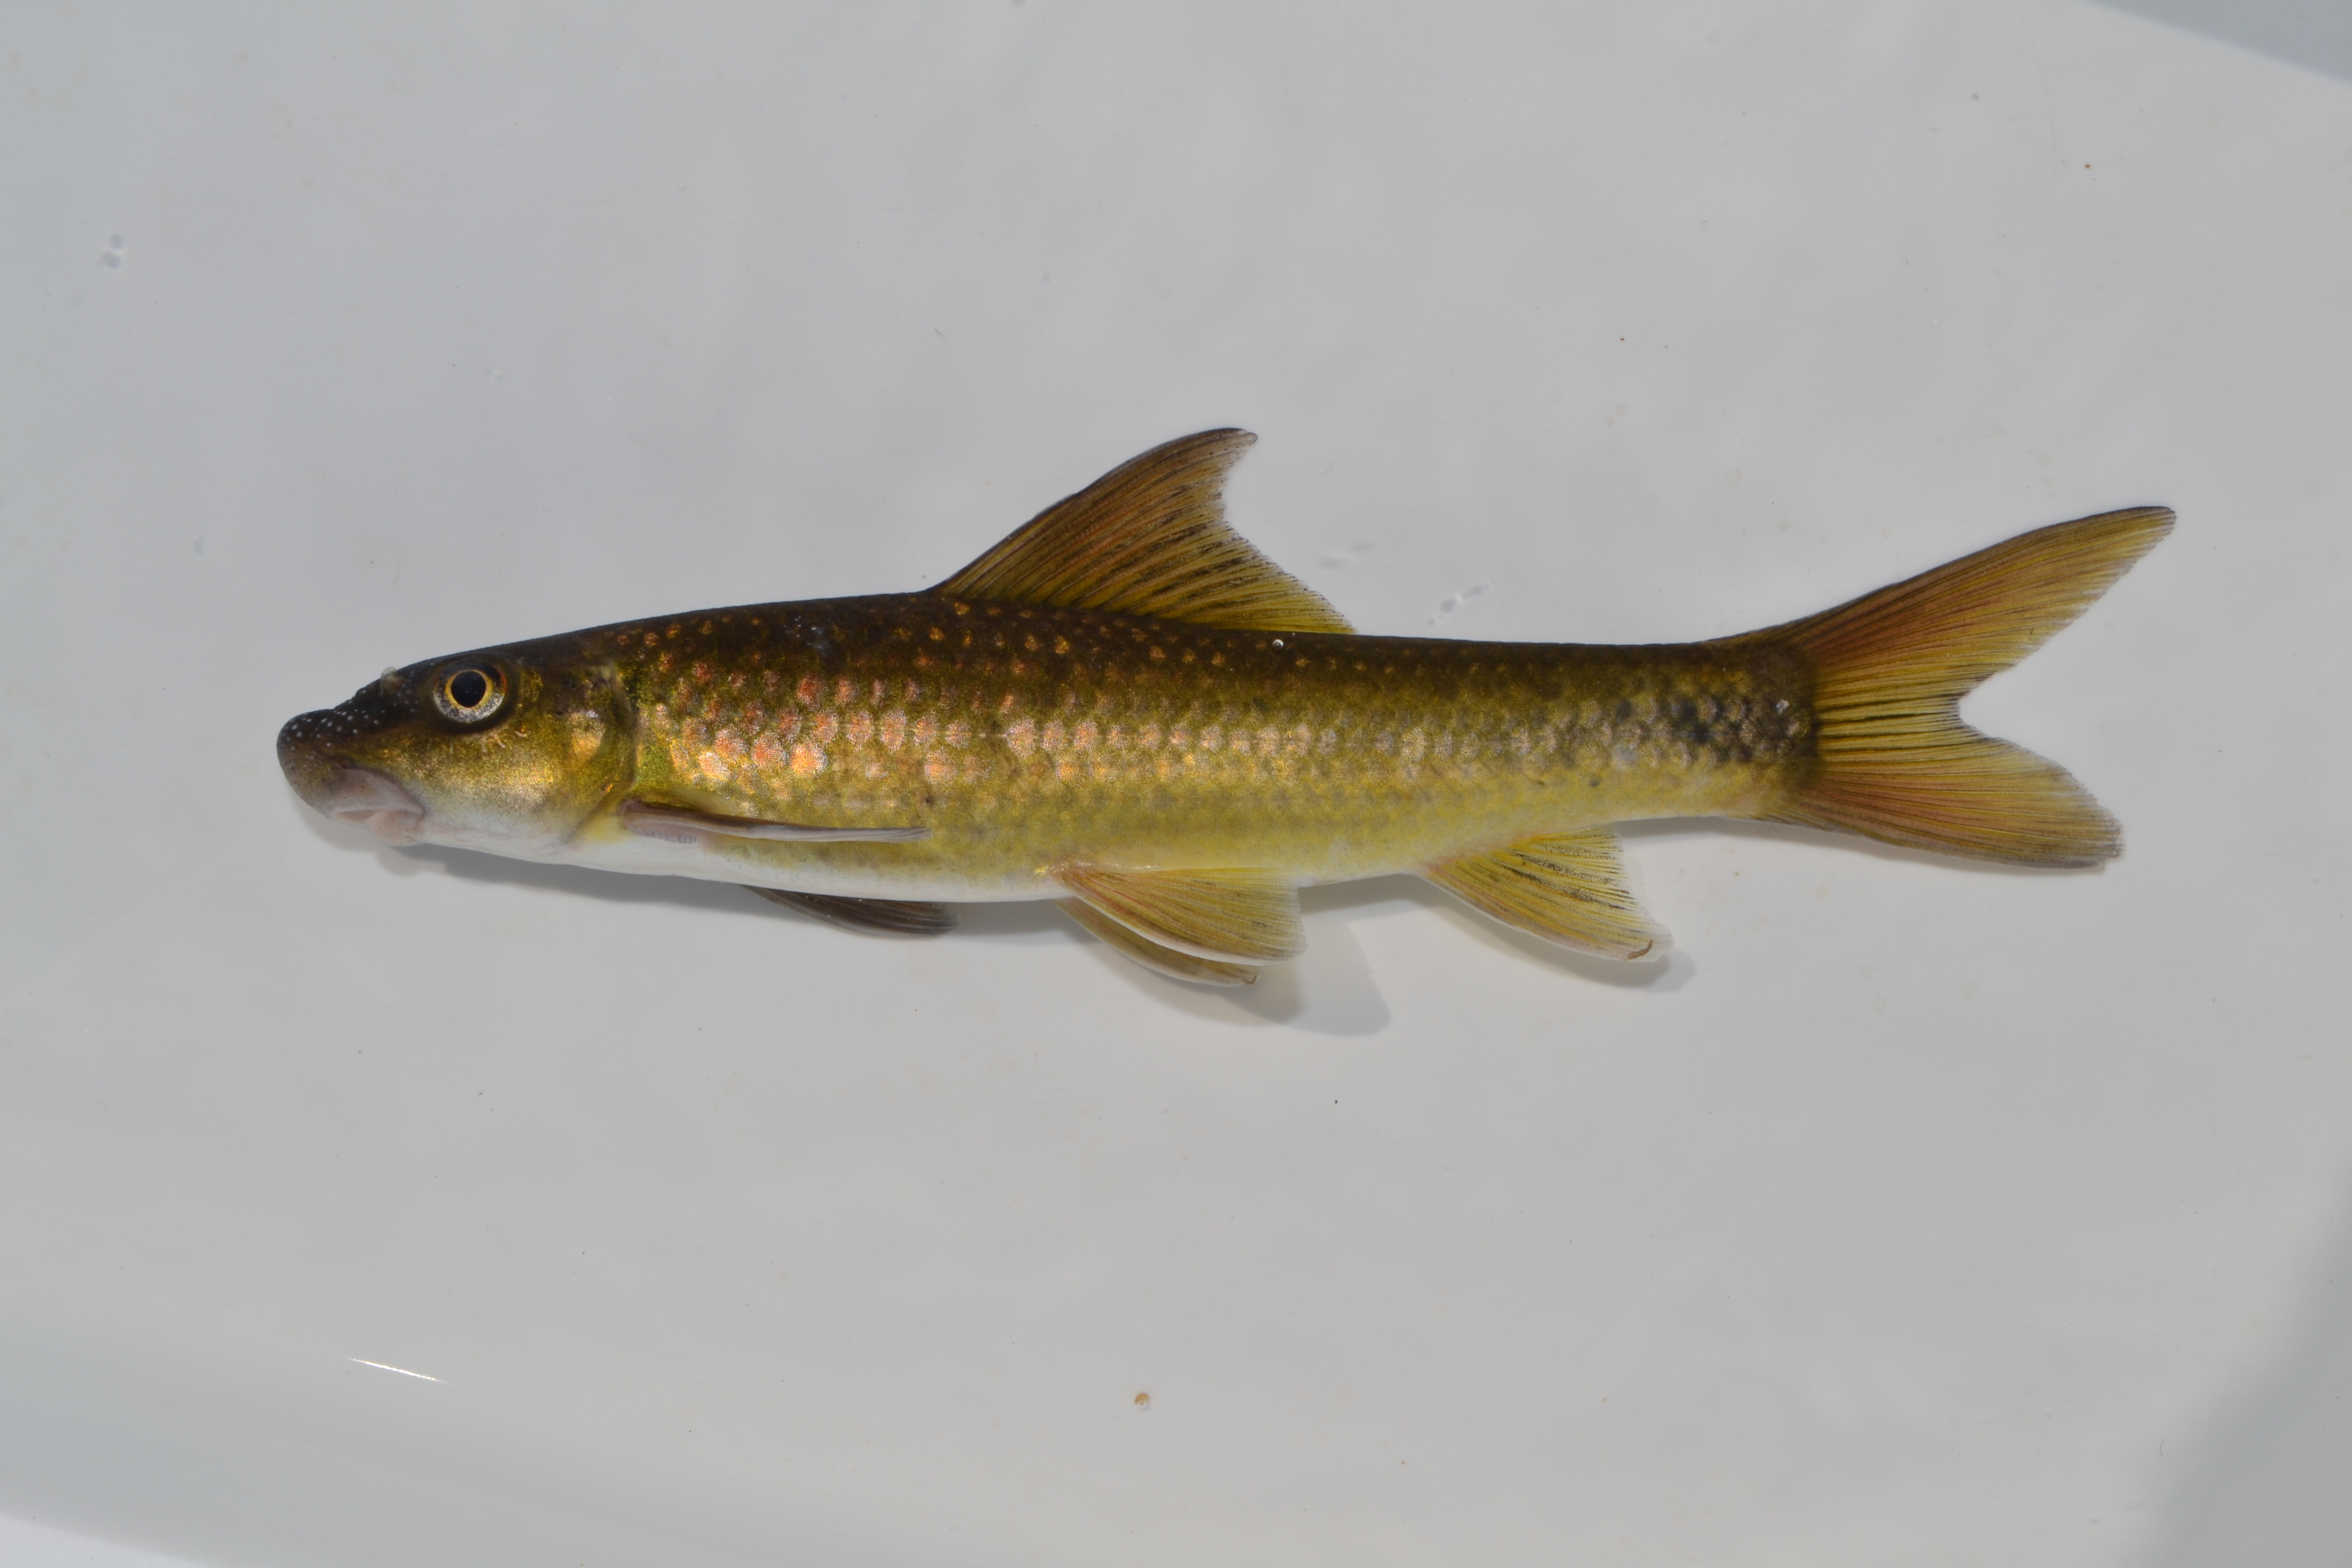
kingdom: Animalia
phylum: Chordata
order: Cypriniformes
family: Cyprinidae
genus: Labeo
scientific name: Labeo molybdinus
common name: Leaden labeo
